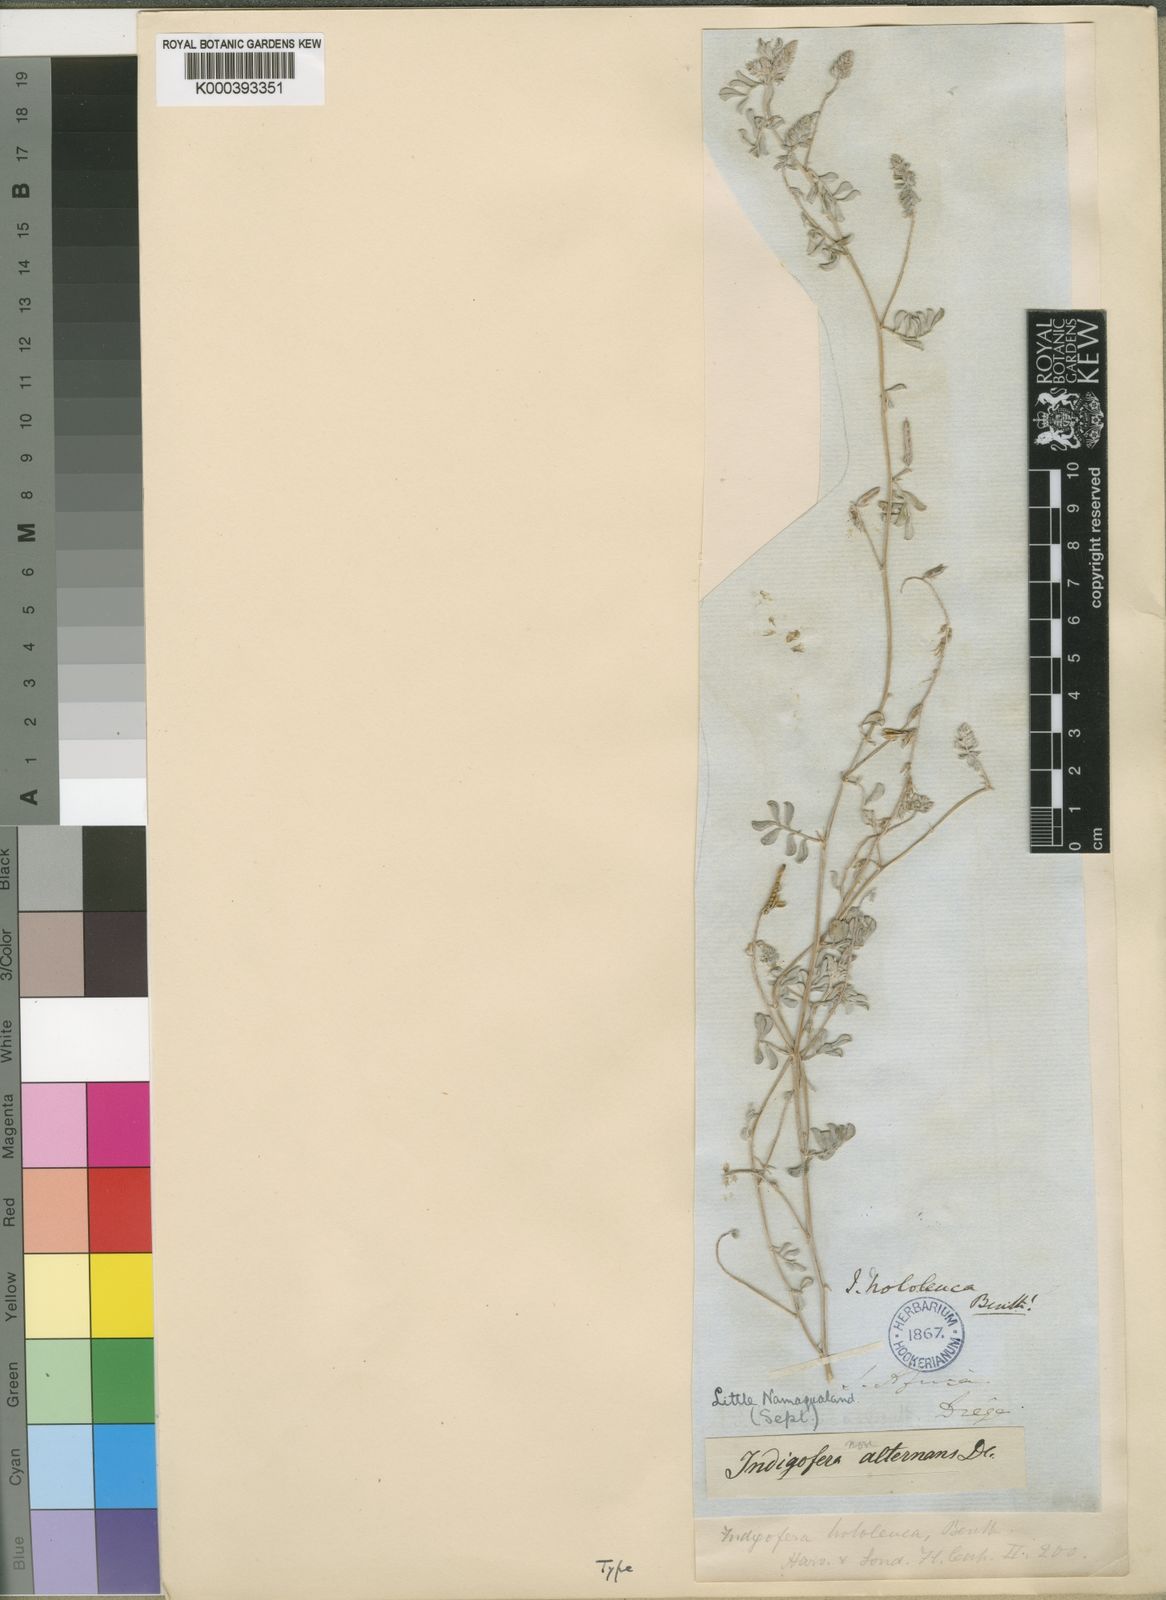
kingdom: Plantae
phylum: Tracheophyta
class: Magnoliopsida
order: Fabales
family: Fabaceae
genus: Indigofera
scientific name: Indigofera hololeuca
